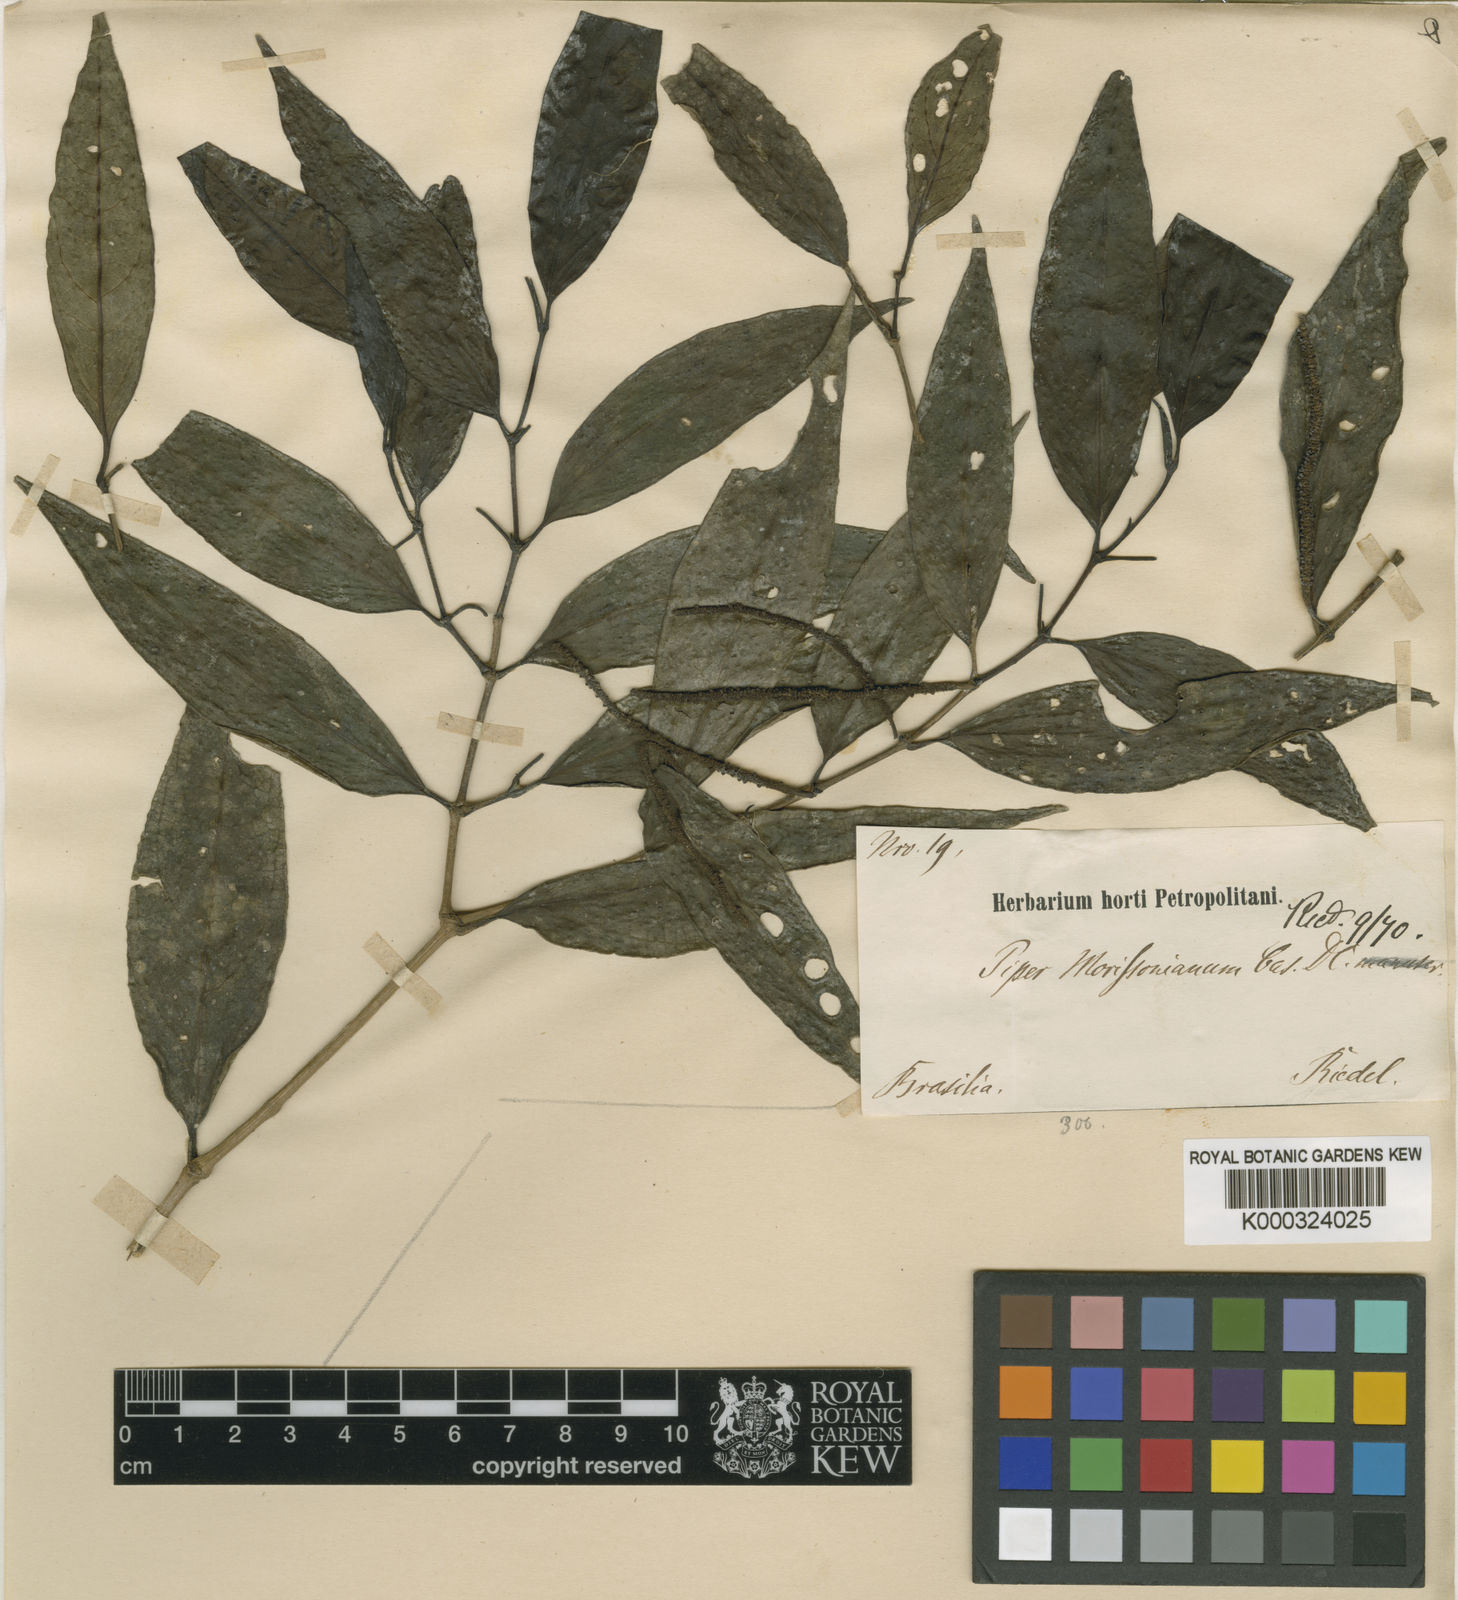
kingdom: Plantae
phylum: Tracheophyta
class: Magnoliopsida
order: Piperales
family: Piperaceae
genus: Piper
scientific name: Piper morisonianum
